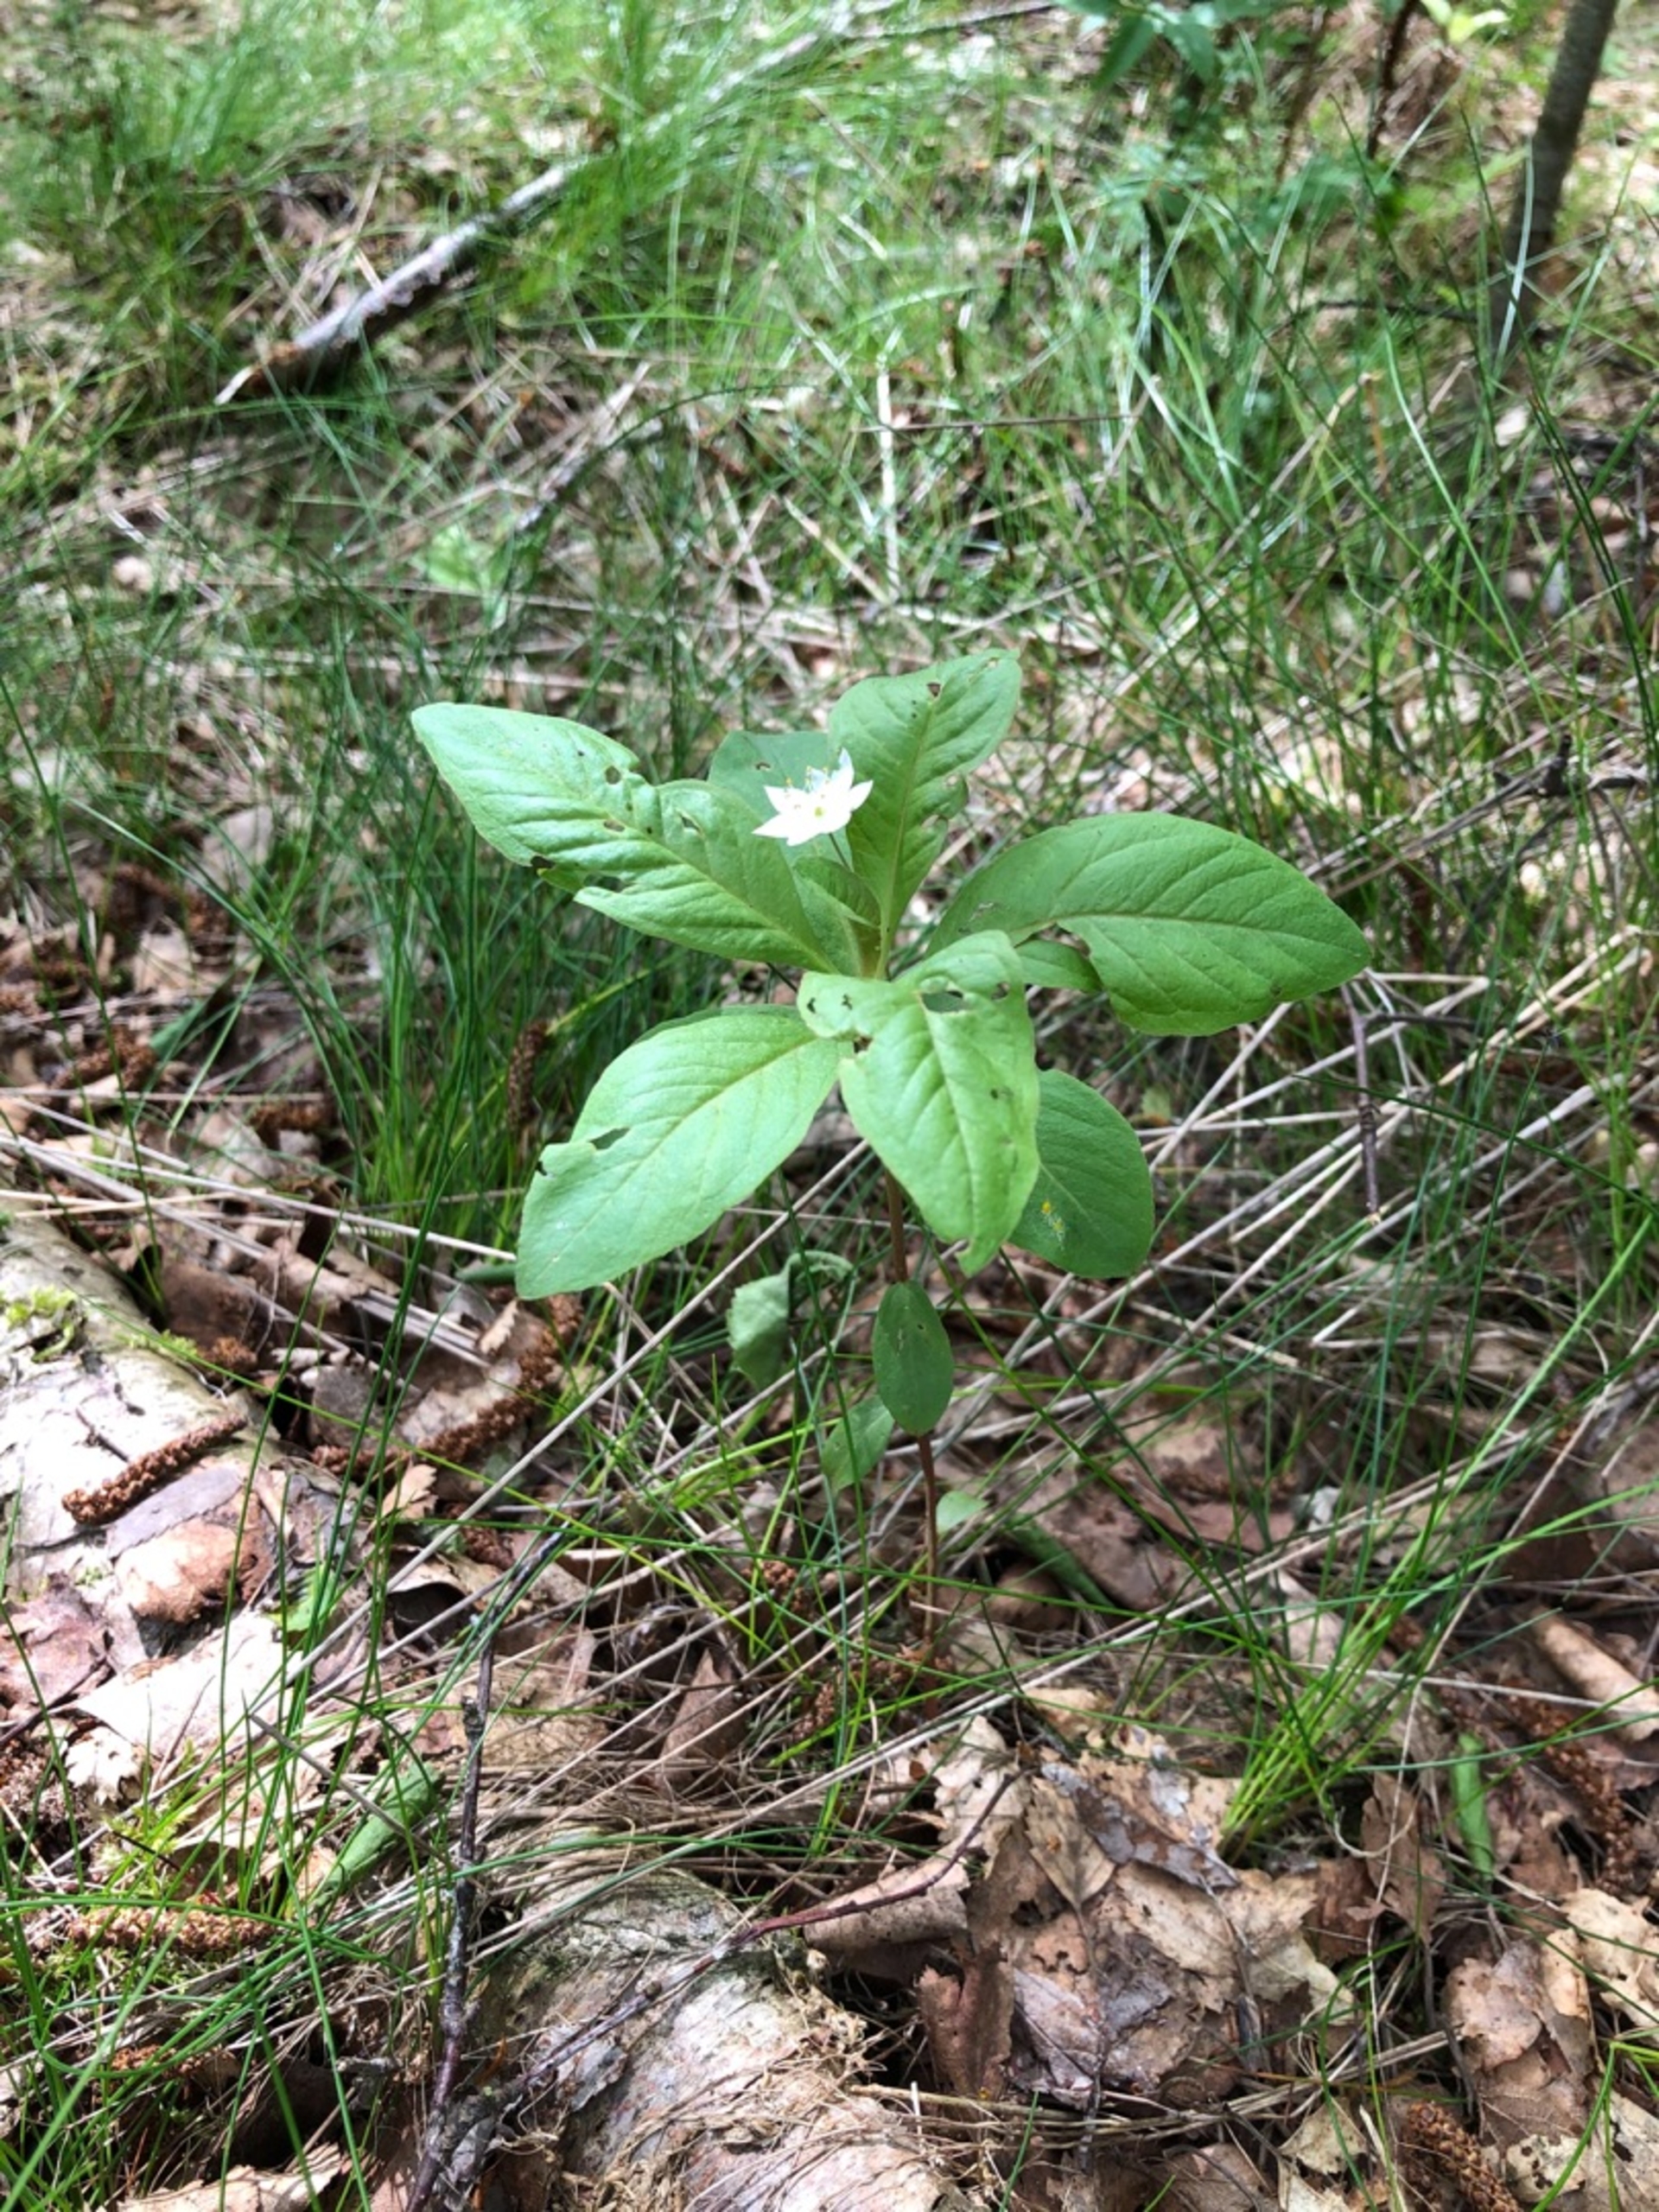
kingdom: Plantae
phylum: Tracheophyta
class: Magnoliopsida
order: Ericales
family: Primulaceae
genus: Lysimachia
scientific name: Lysimachia europaea
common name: Skovstjerne
